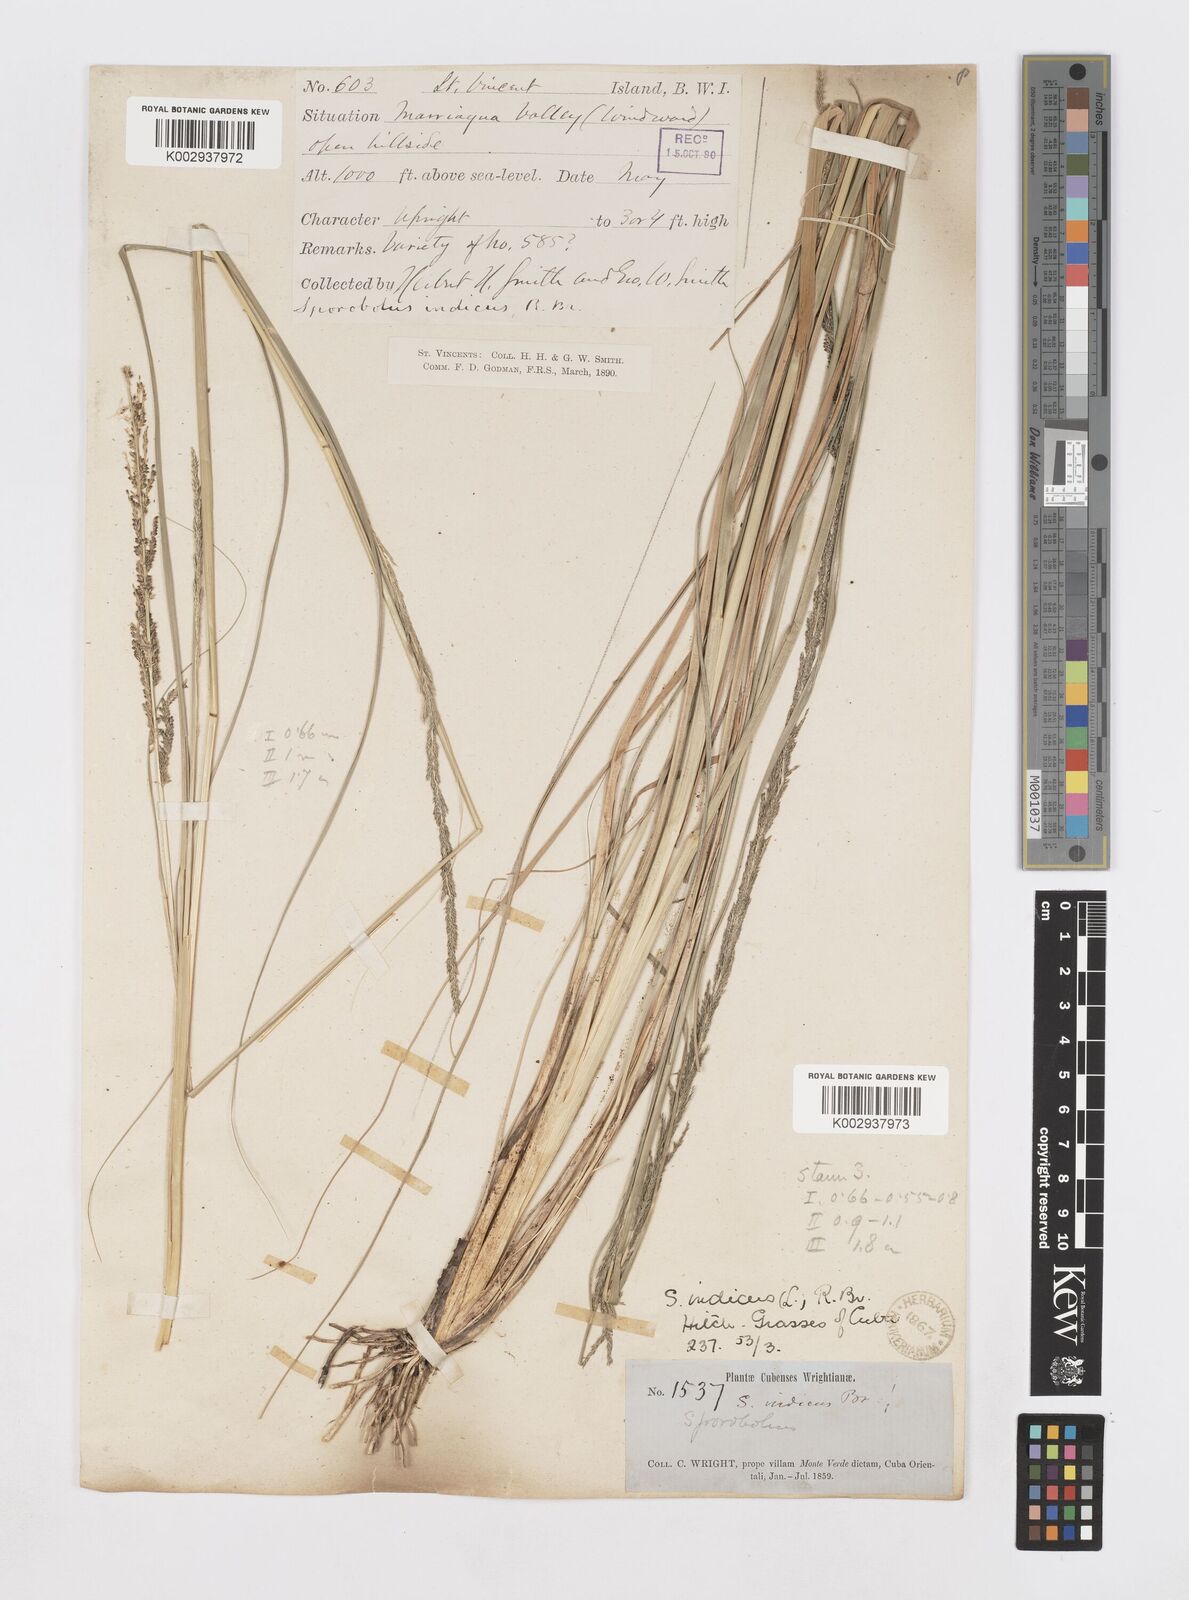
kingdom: Plantae
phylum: Tracheophyta
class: Liliopsida
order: Poales
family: Poaceae
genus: Sporobolus
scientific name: Sporobolus indicus
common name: Smut grass
